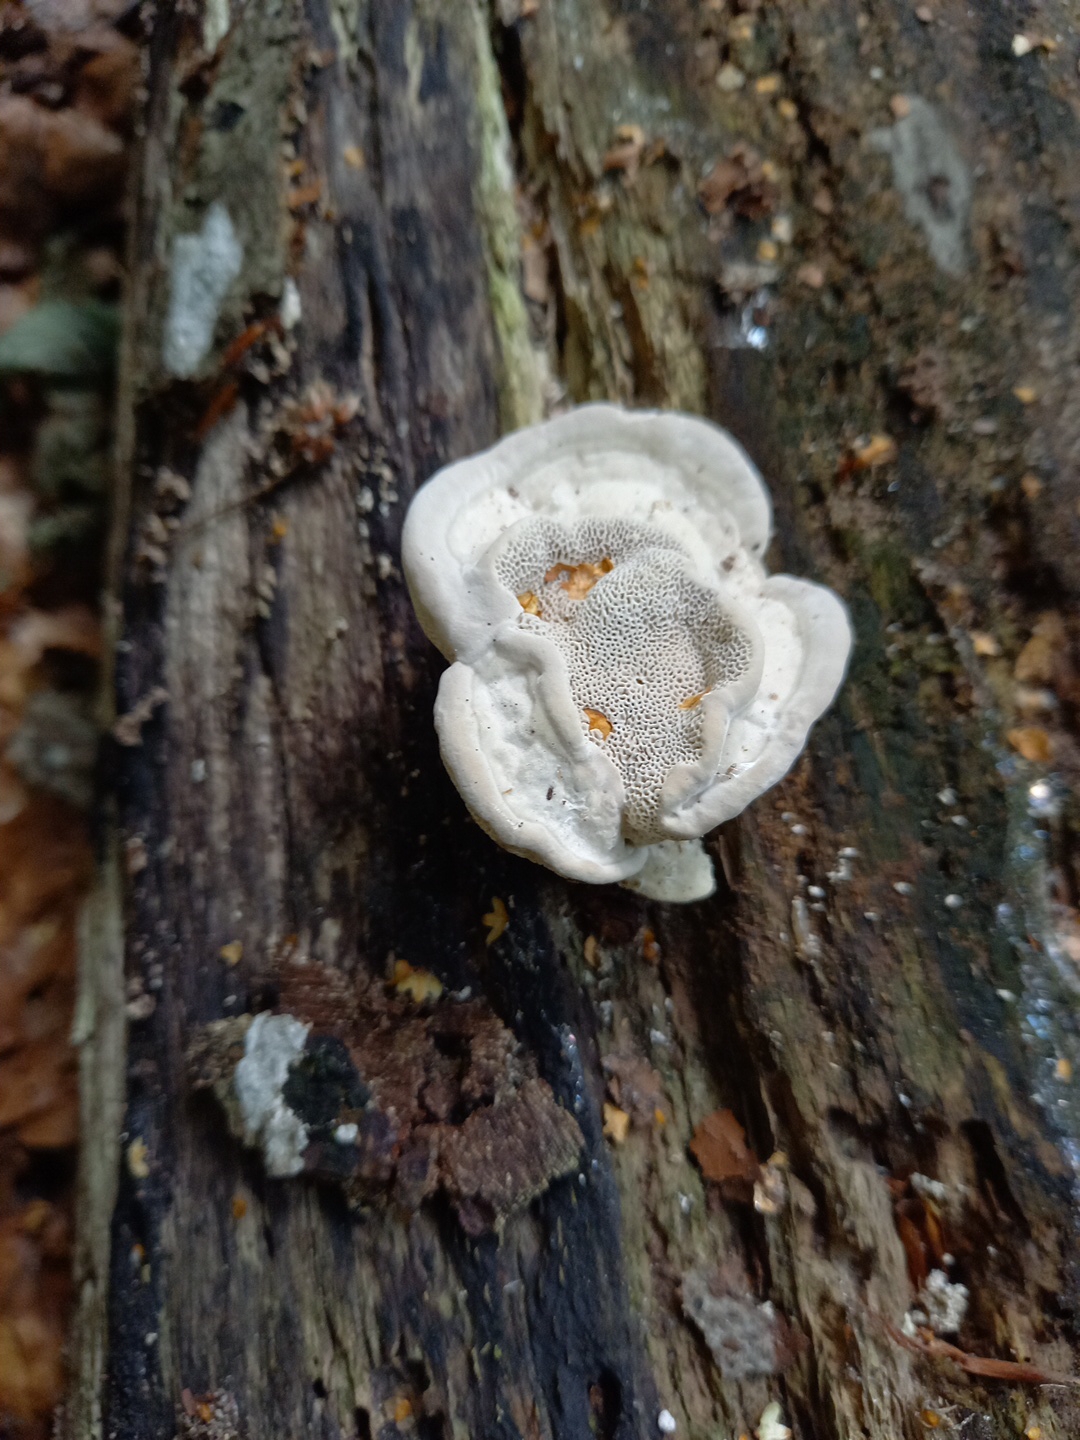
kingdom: Fungi
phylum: Basidiomycota
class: Agaricomycetes
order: Polyporales
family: Polyporaceae
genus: Trametes
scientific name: Trametes gibbosa
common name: puklet læderporesvamp
